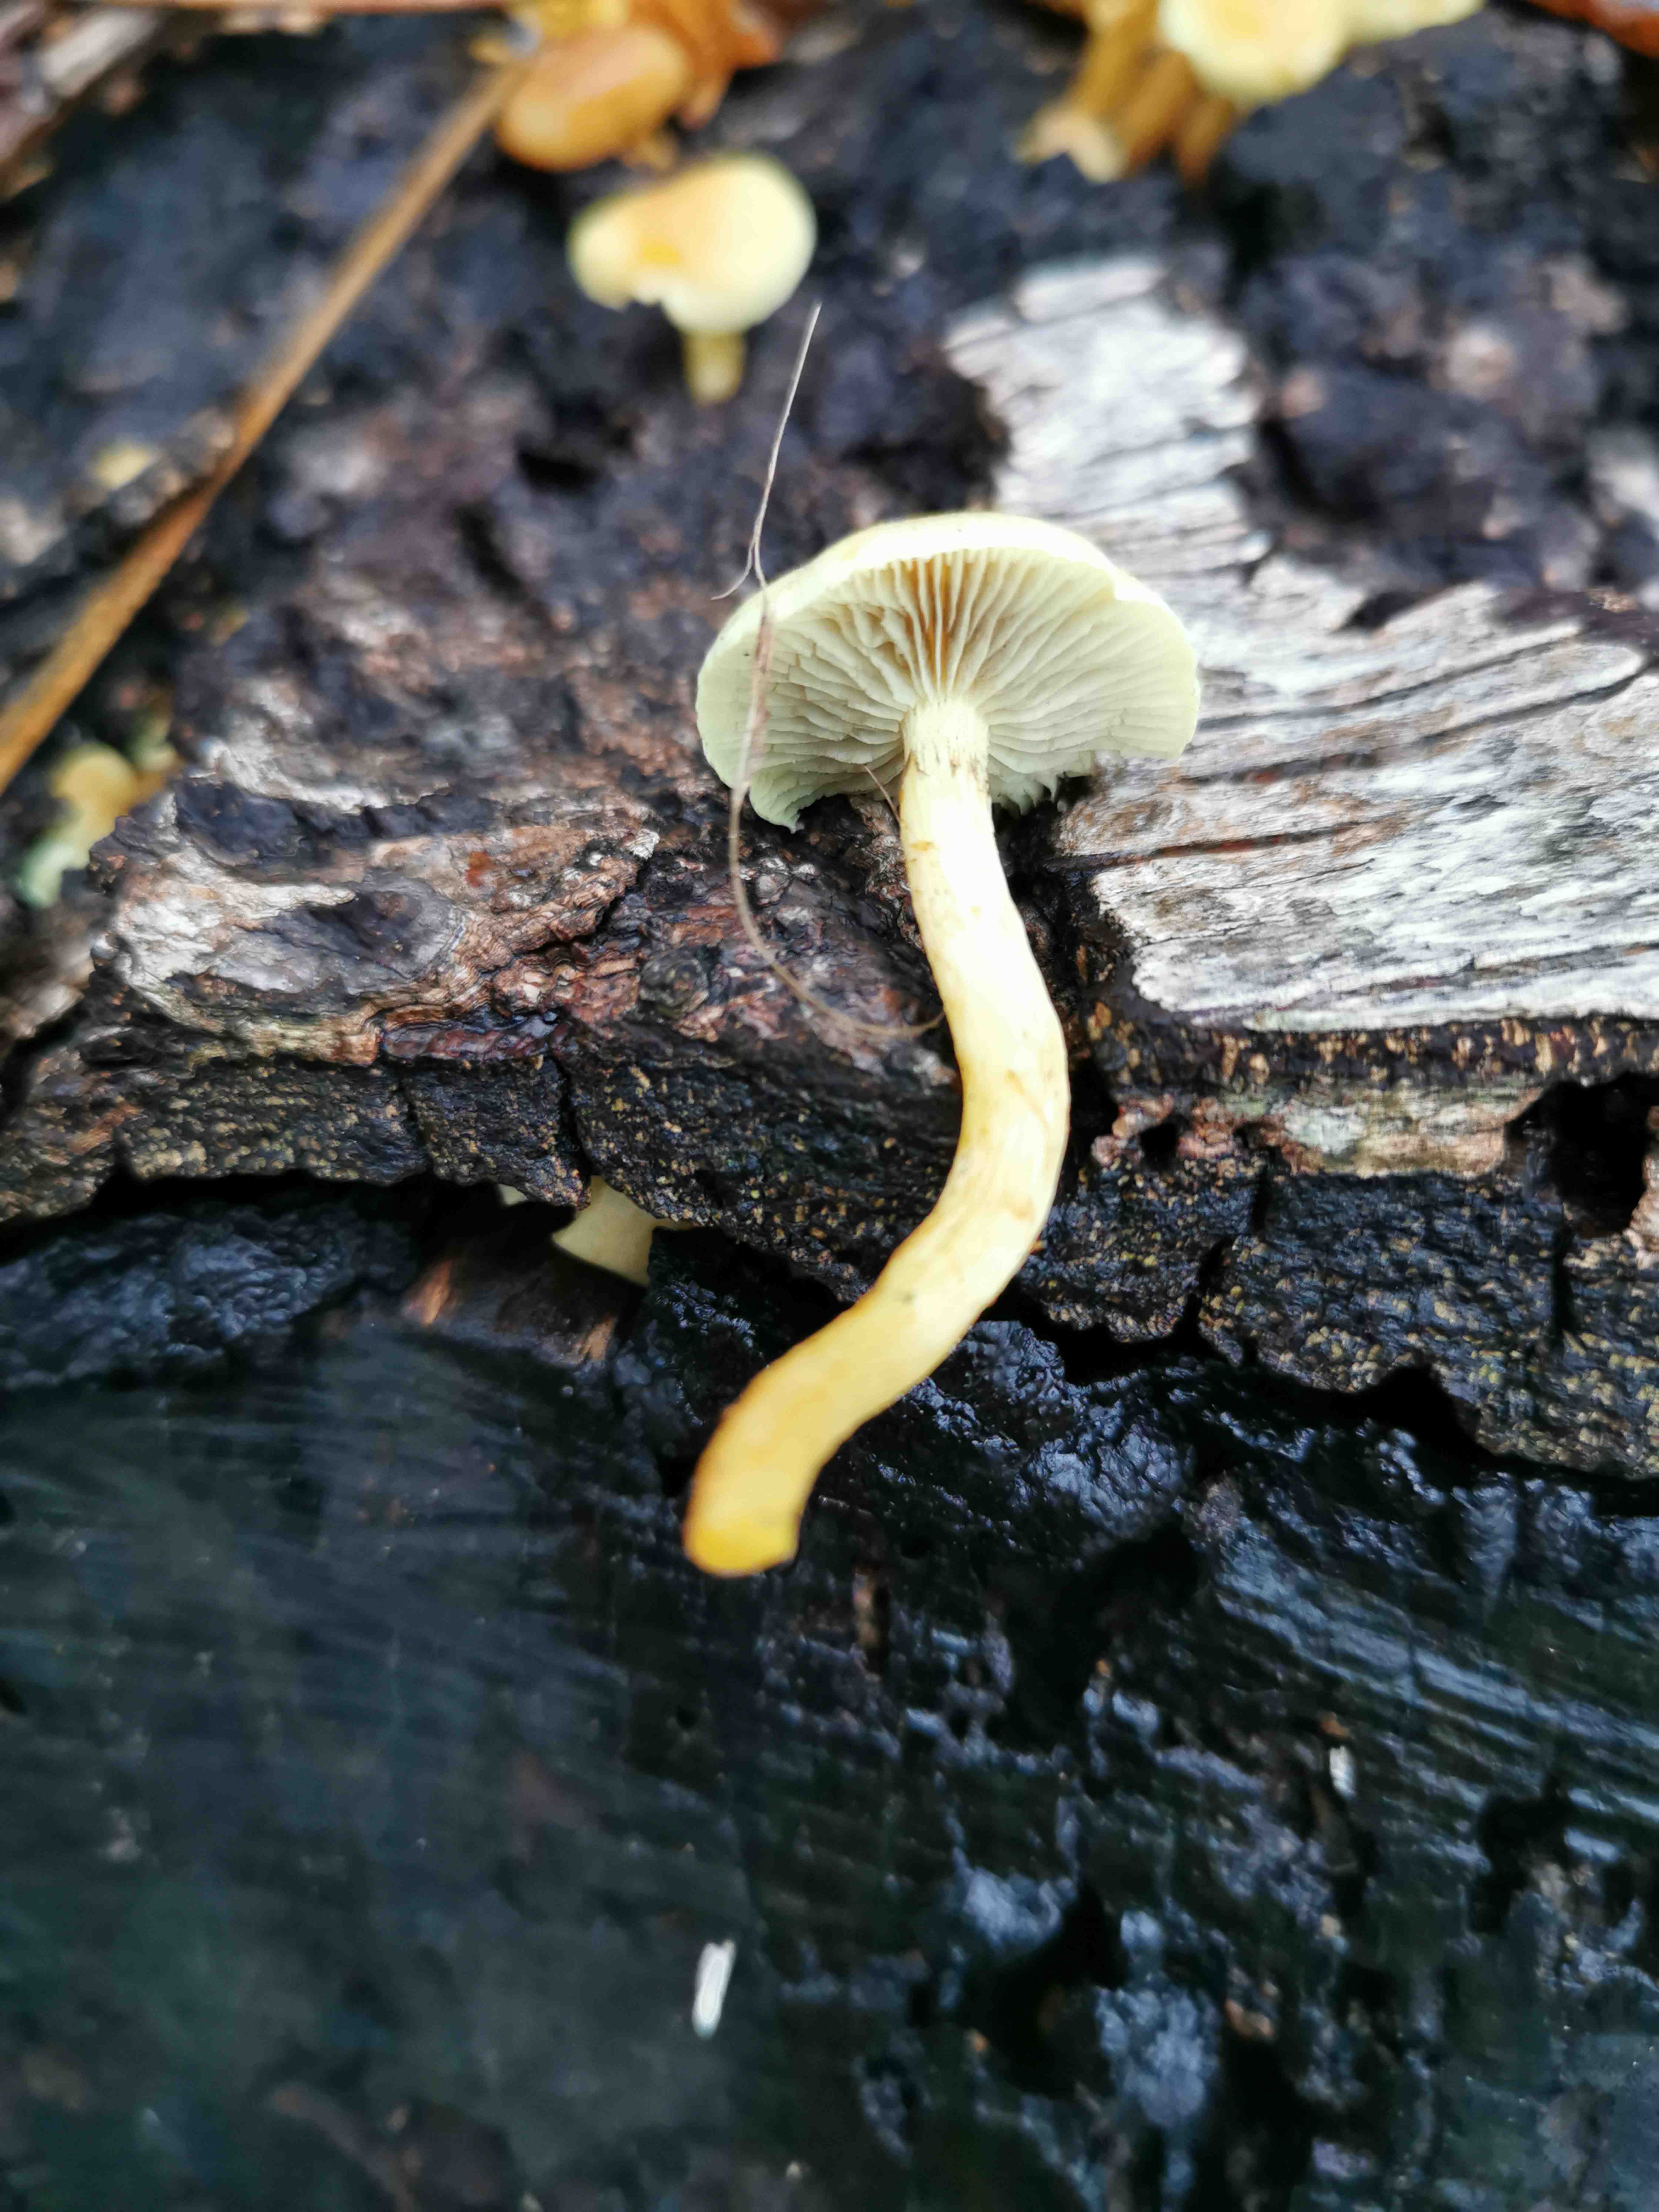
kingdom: Fungi
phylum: Basidiomycota
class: Agaricomycetes
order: Agaricales
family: Strophariaceae
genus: Hypholoma
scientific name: Hypholoma fasciculare
